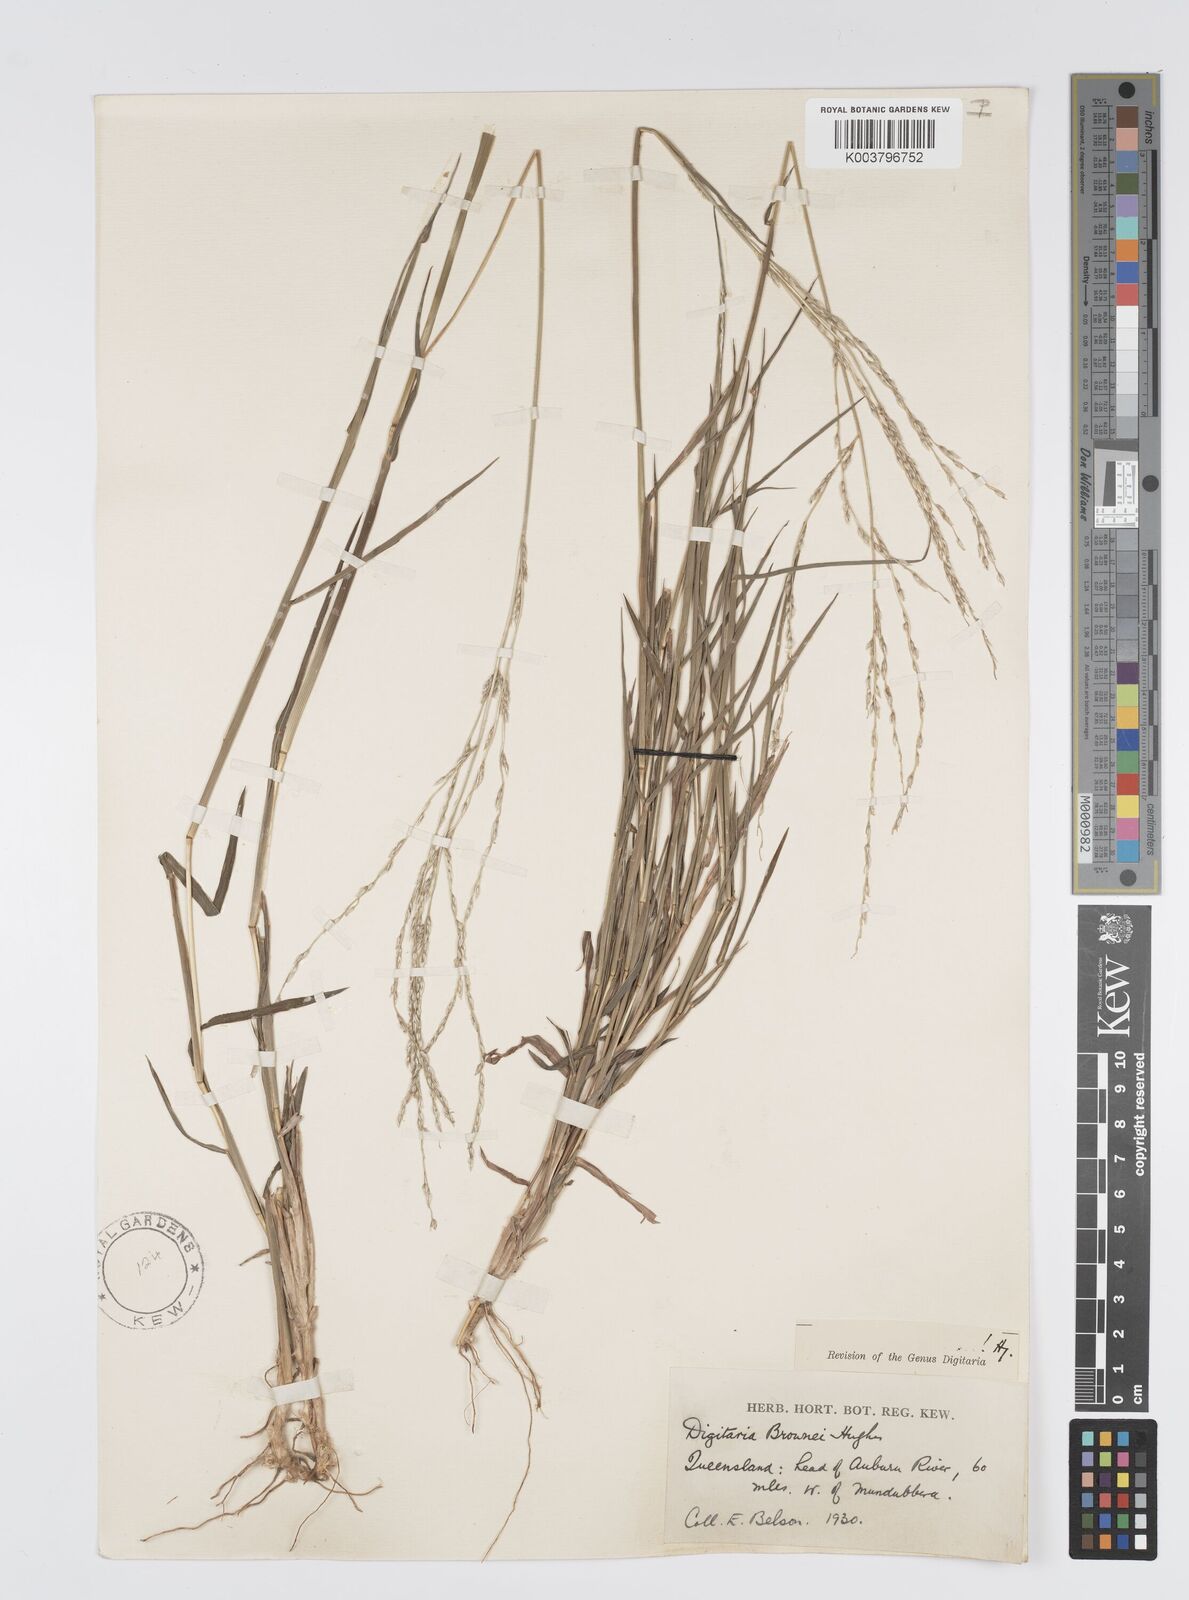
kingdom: Plantae
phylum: Tracheophyta
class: Liliopsida
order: Poales
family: Poaceae
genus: Digitaria
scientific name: Digitaria brownii
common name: Cotton grass
